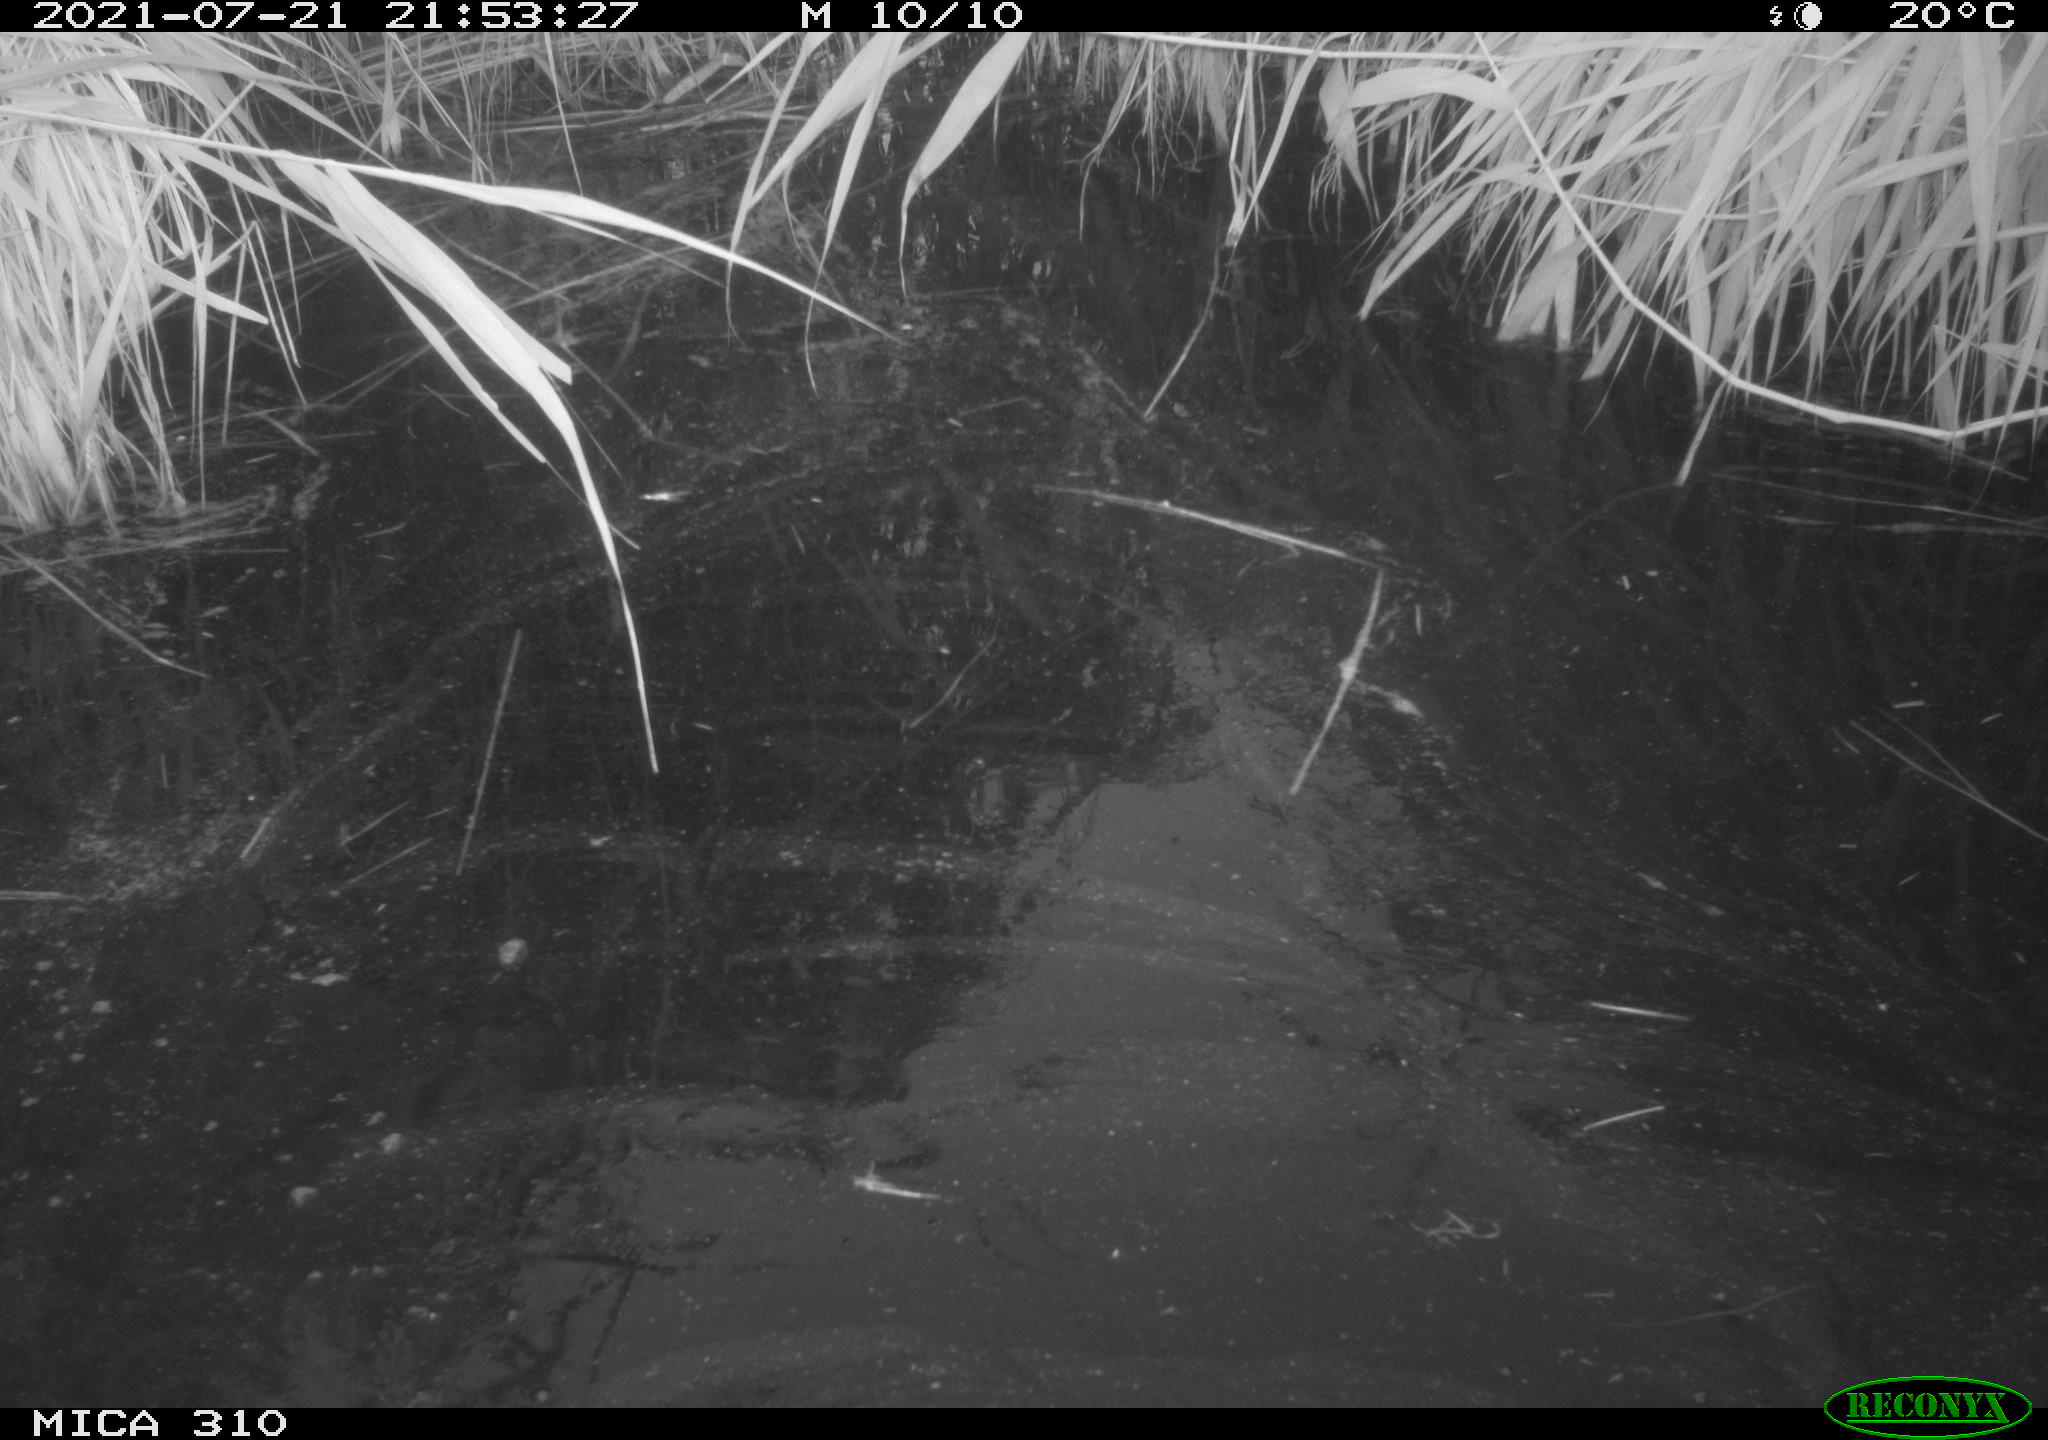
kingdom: Animalia
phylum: Chordata
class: Aves
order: Anseriformes
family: Anatidae
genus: Anas
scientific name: Anas platyrhynchos
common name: Mallard
